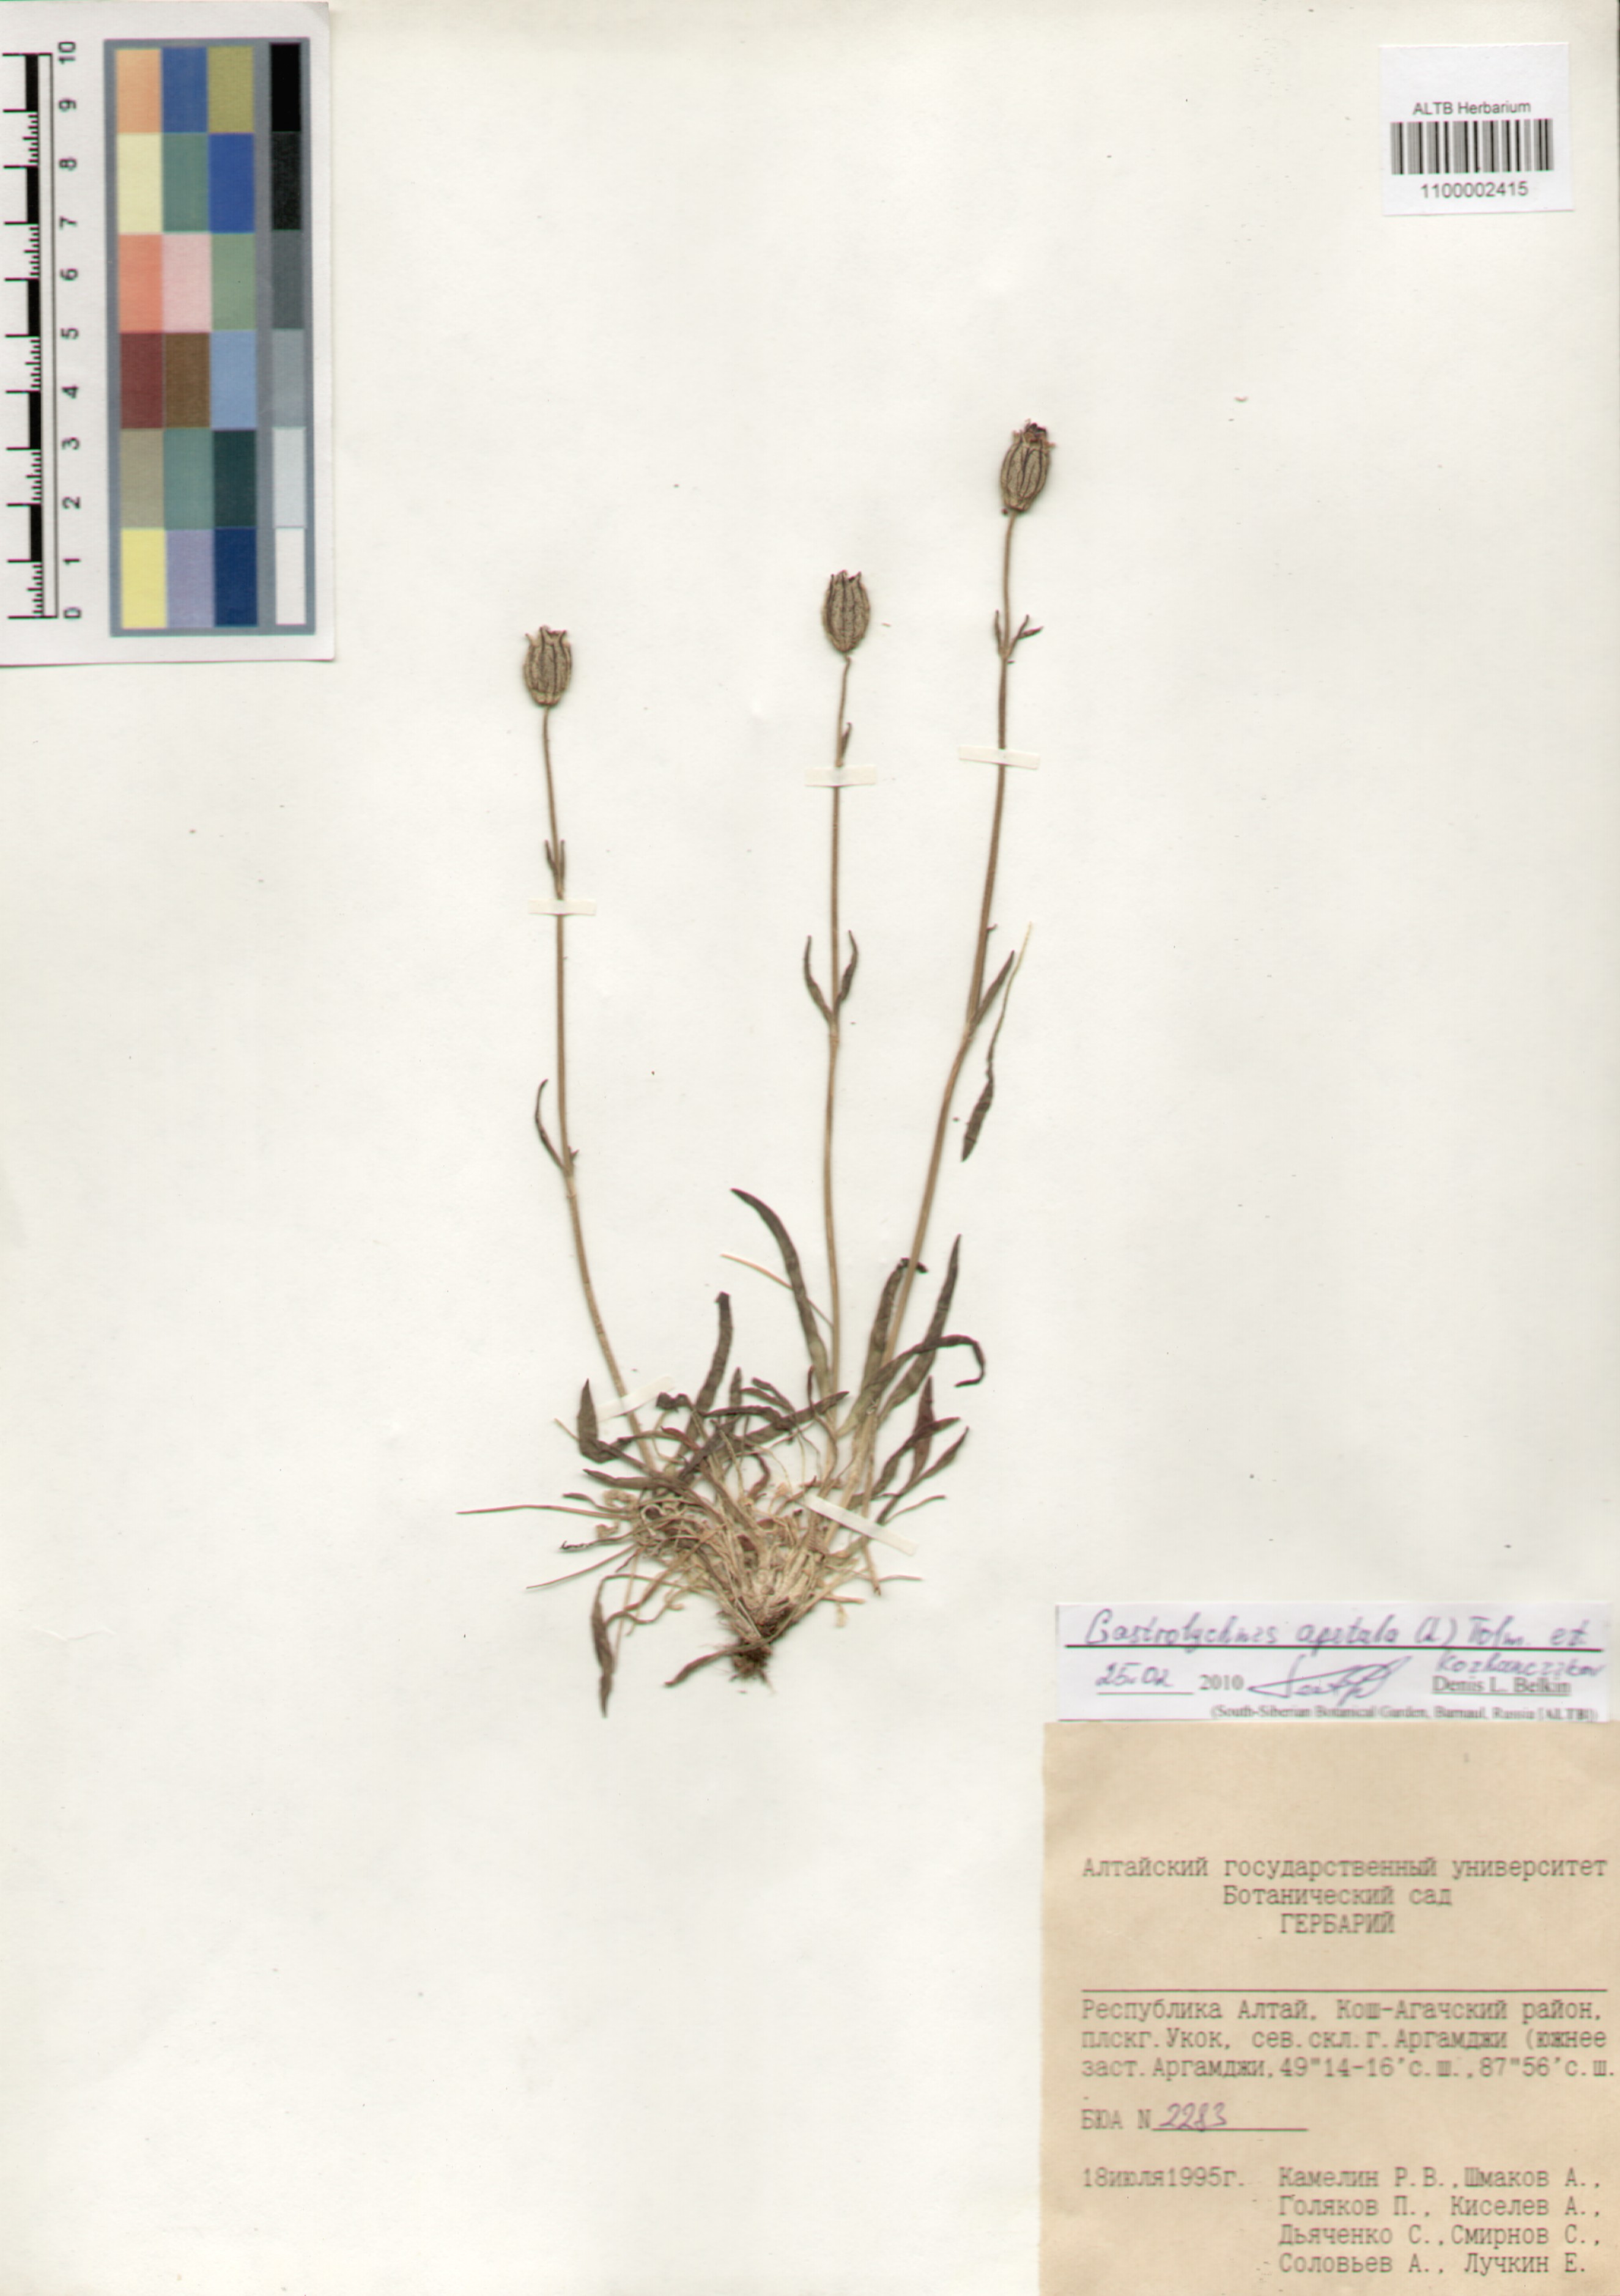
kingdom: Plantae
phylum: Tracheophyta
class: Magnoliopsida
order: Caryophyllales
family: Caryophyllaceae
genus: Silene
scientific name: Silene wahlbergella
